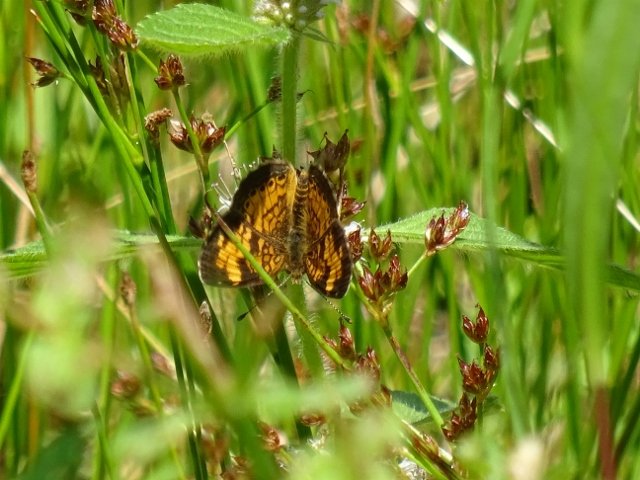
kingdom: Animalia
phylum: Arthropoda
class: Insecta
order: Lepidoptera
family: Nymphalidae
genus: Phyciodes
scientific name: Phyciodes tharos
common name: Pearl Crescent
